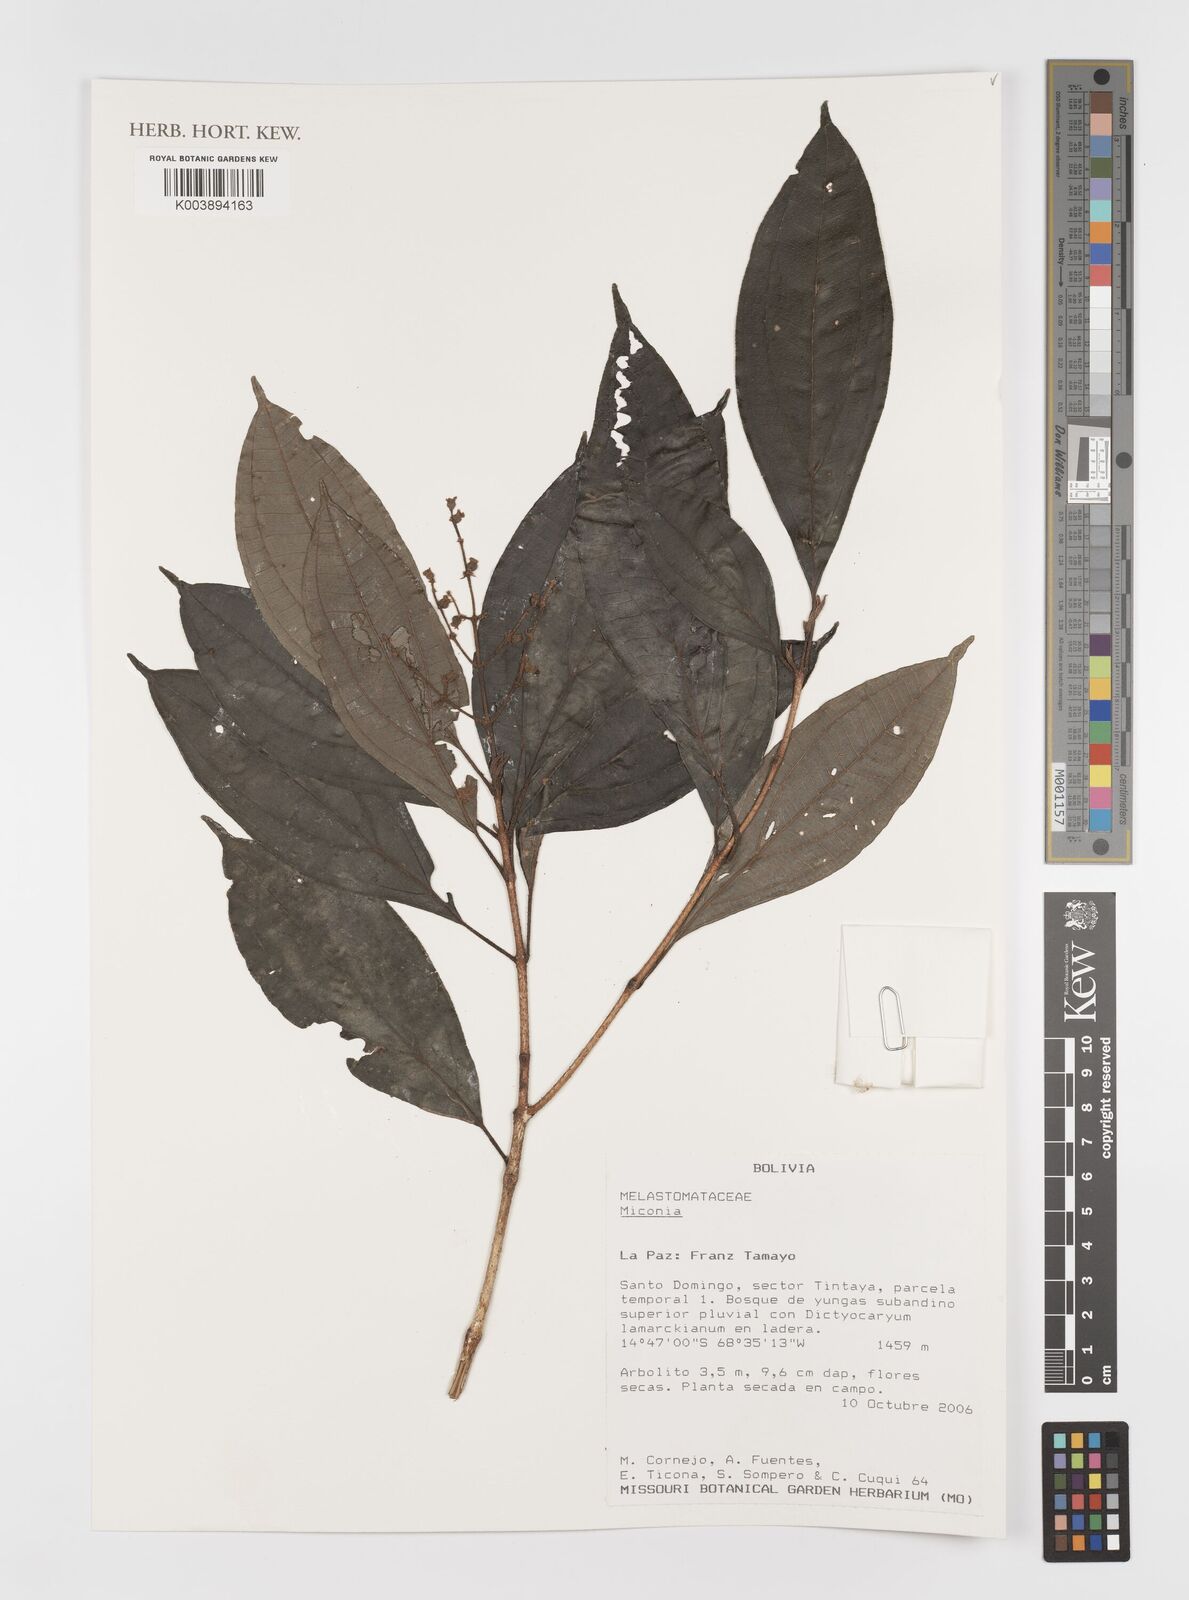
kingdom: Plantae
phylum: Tracheophyta
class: Magnoliopsida
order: Myrtales
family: Melastomataceae
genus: Miconia
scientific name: Miconia
